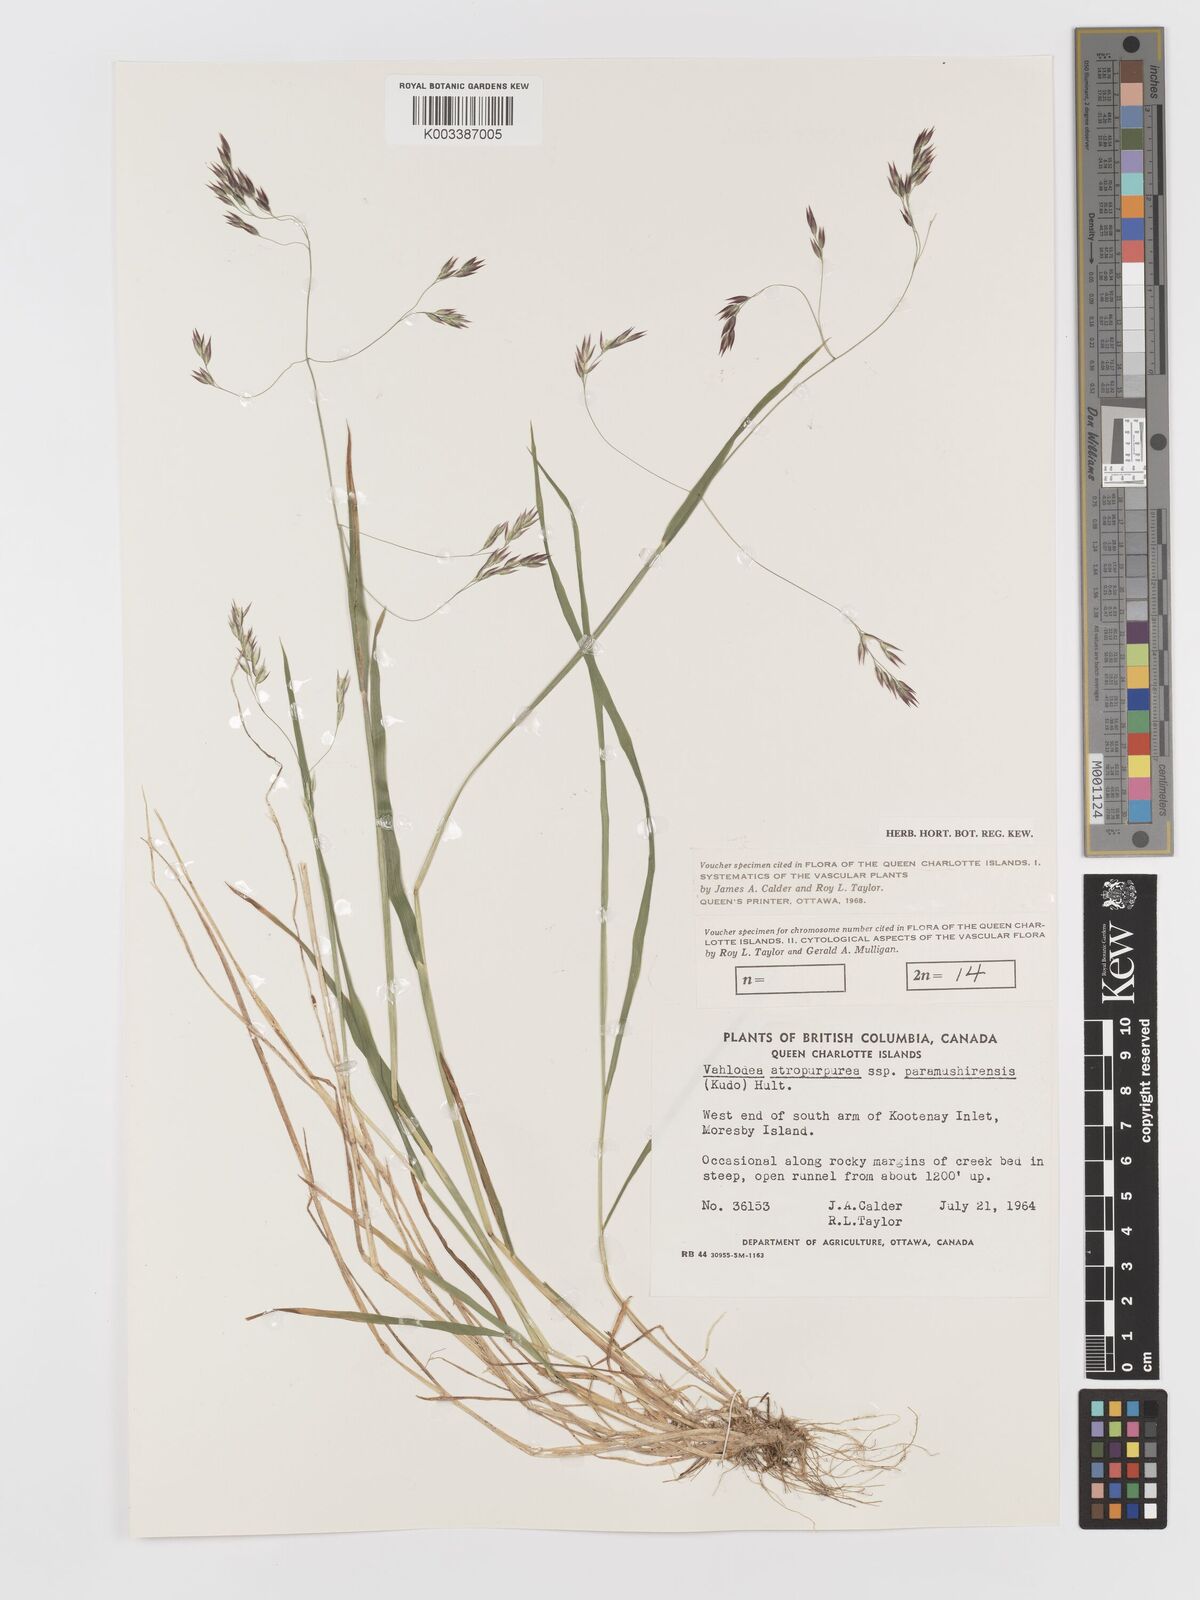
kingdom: Plantae
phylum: Tracheophyta
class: Liliopsida
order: Poales
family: Poaceae
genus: Vahlodea
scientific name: Vahlodea atropurpurea
